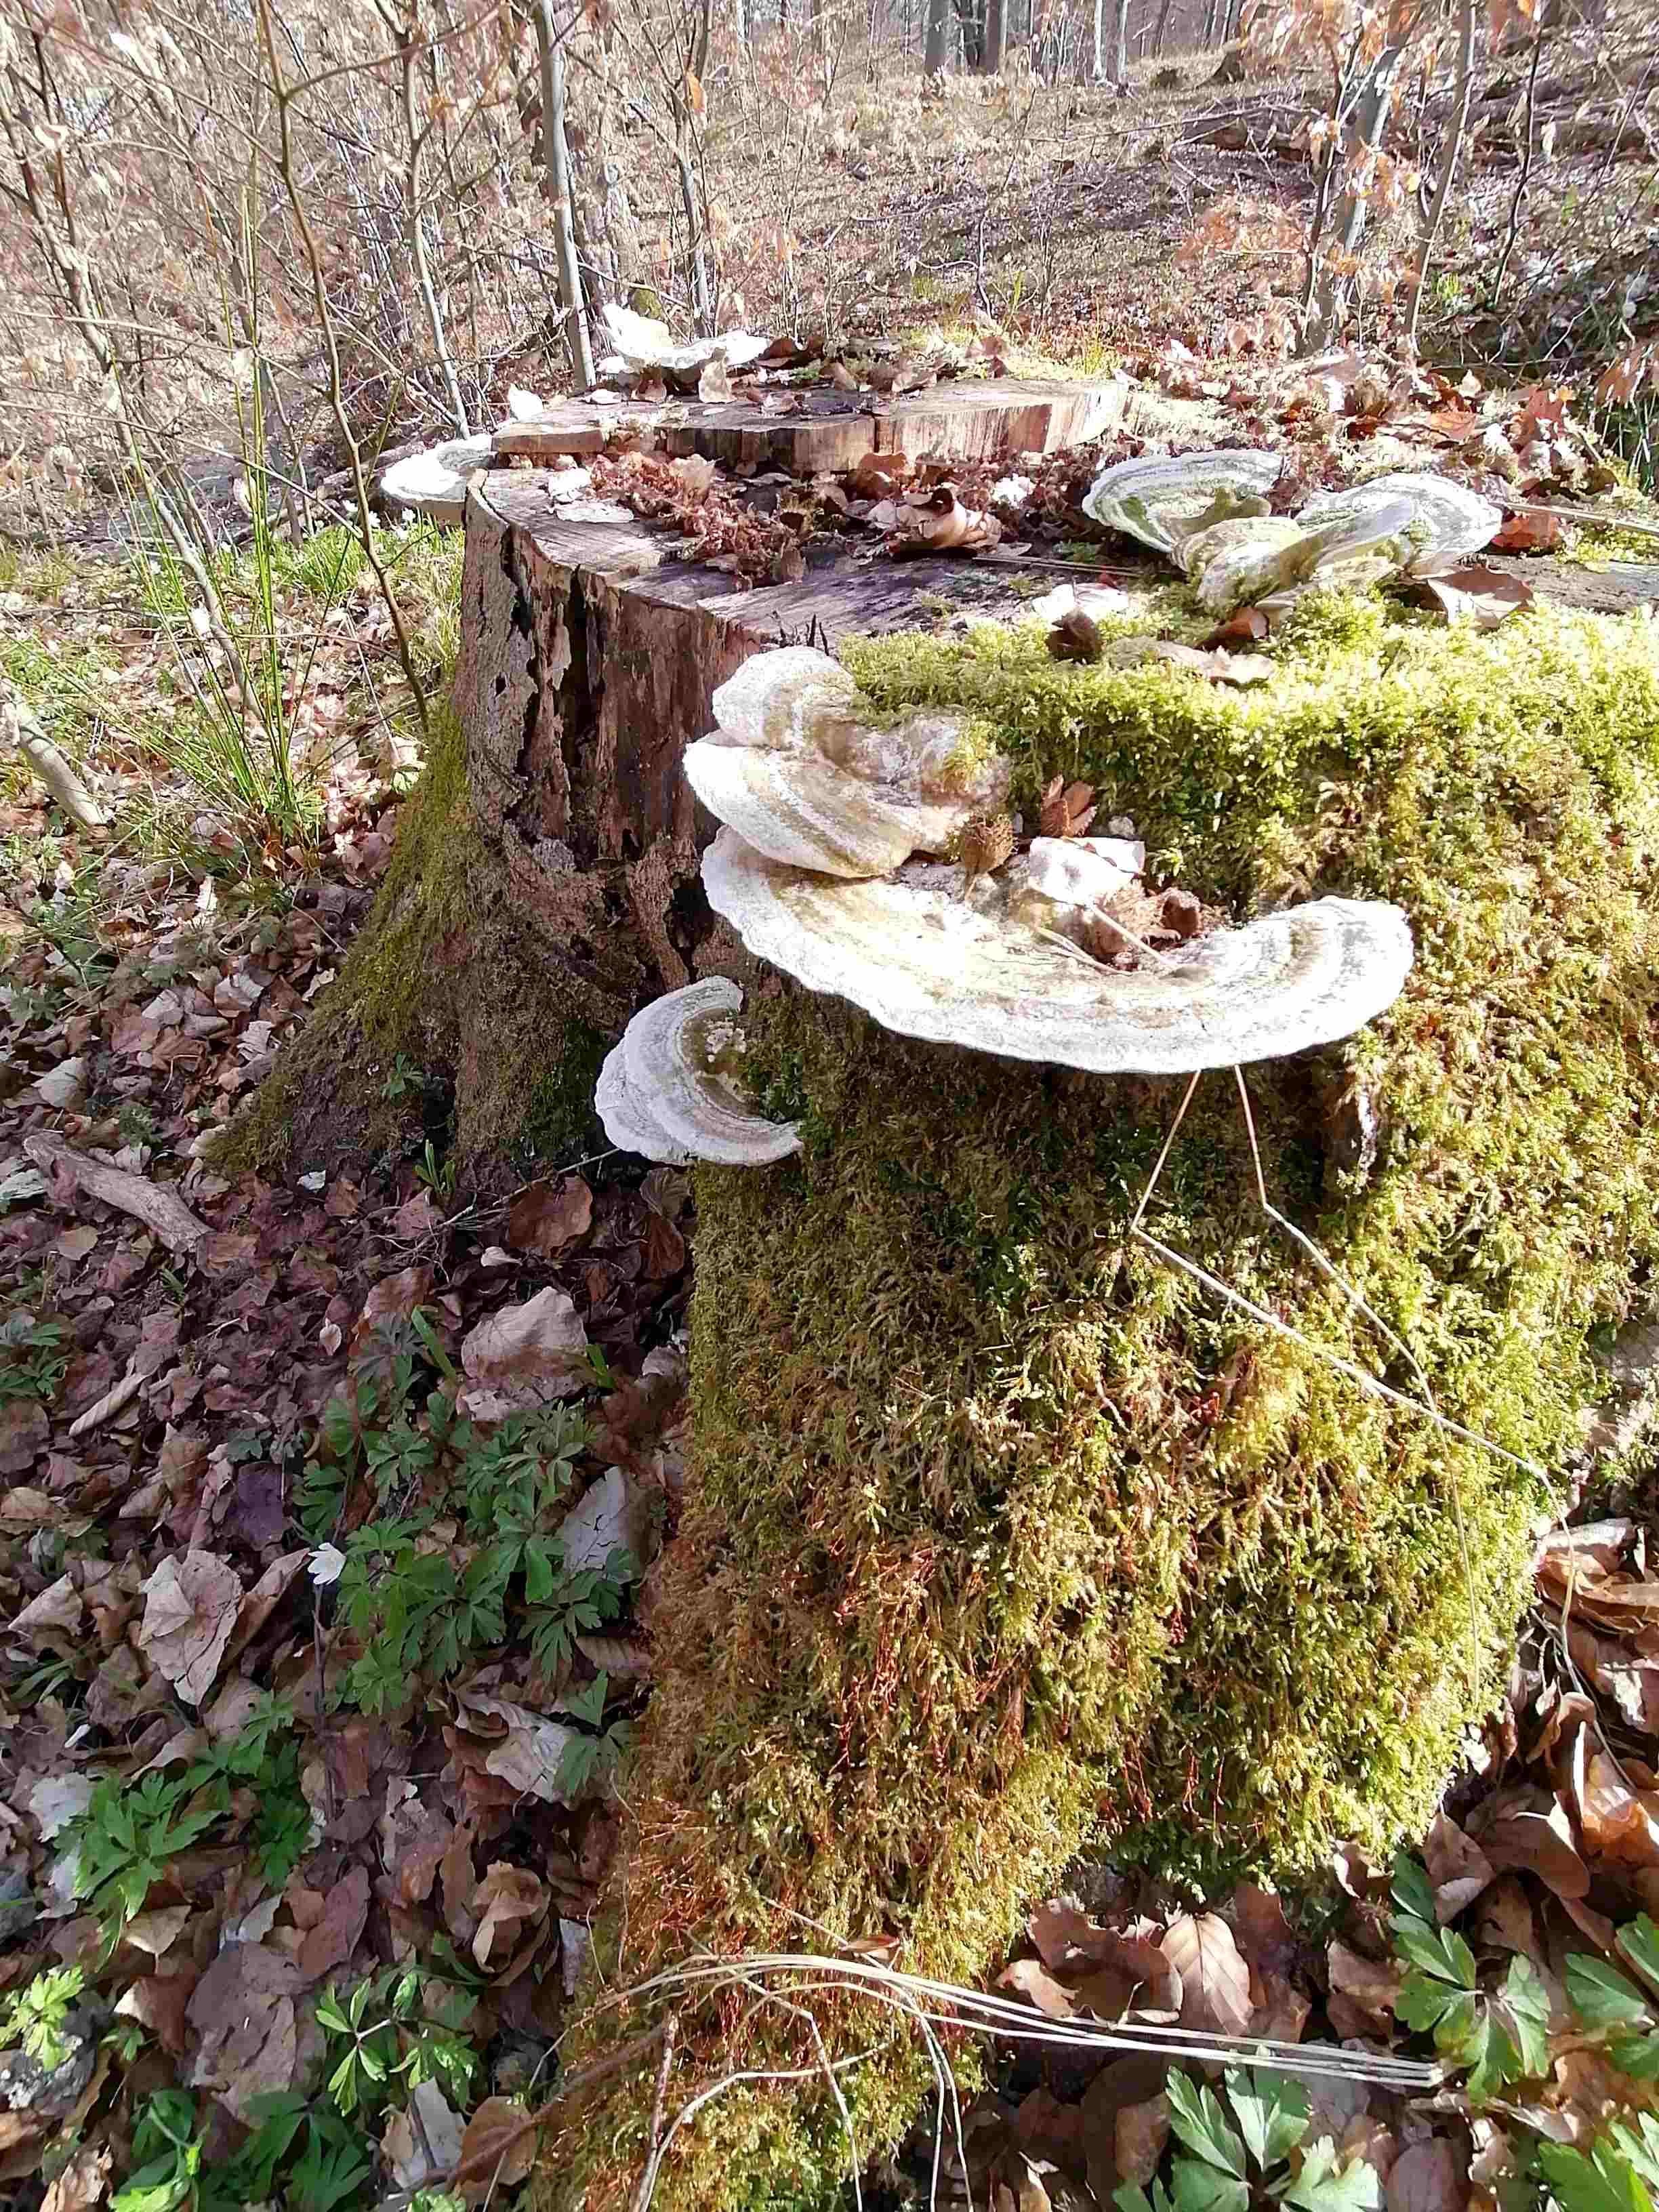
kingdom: Fungi
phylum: Basidiomycota
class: Agaricomycetes
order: Polyporales
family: Polyporaceae
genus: Trametes
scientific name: Trametes gibbosa
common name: puklet læderporesvamp
